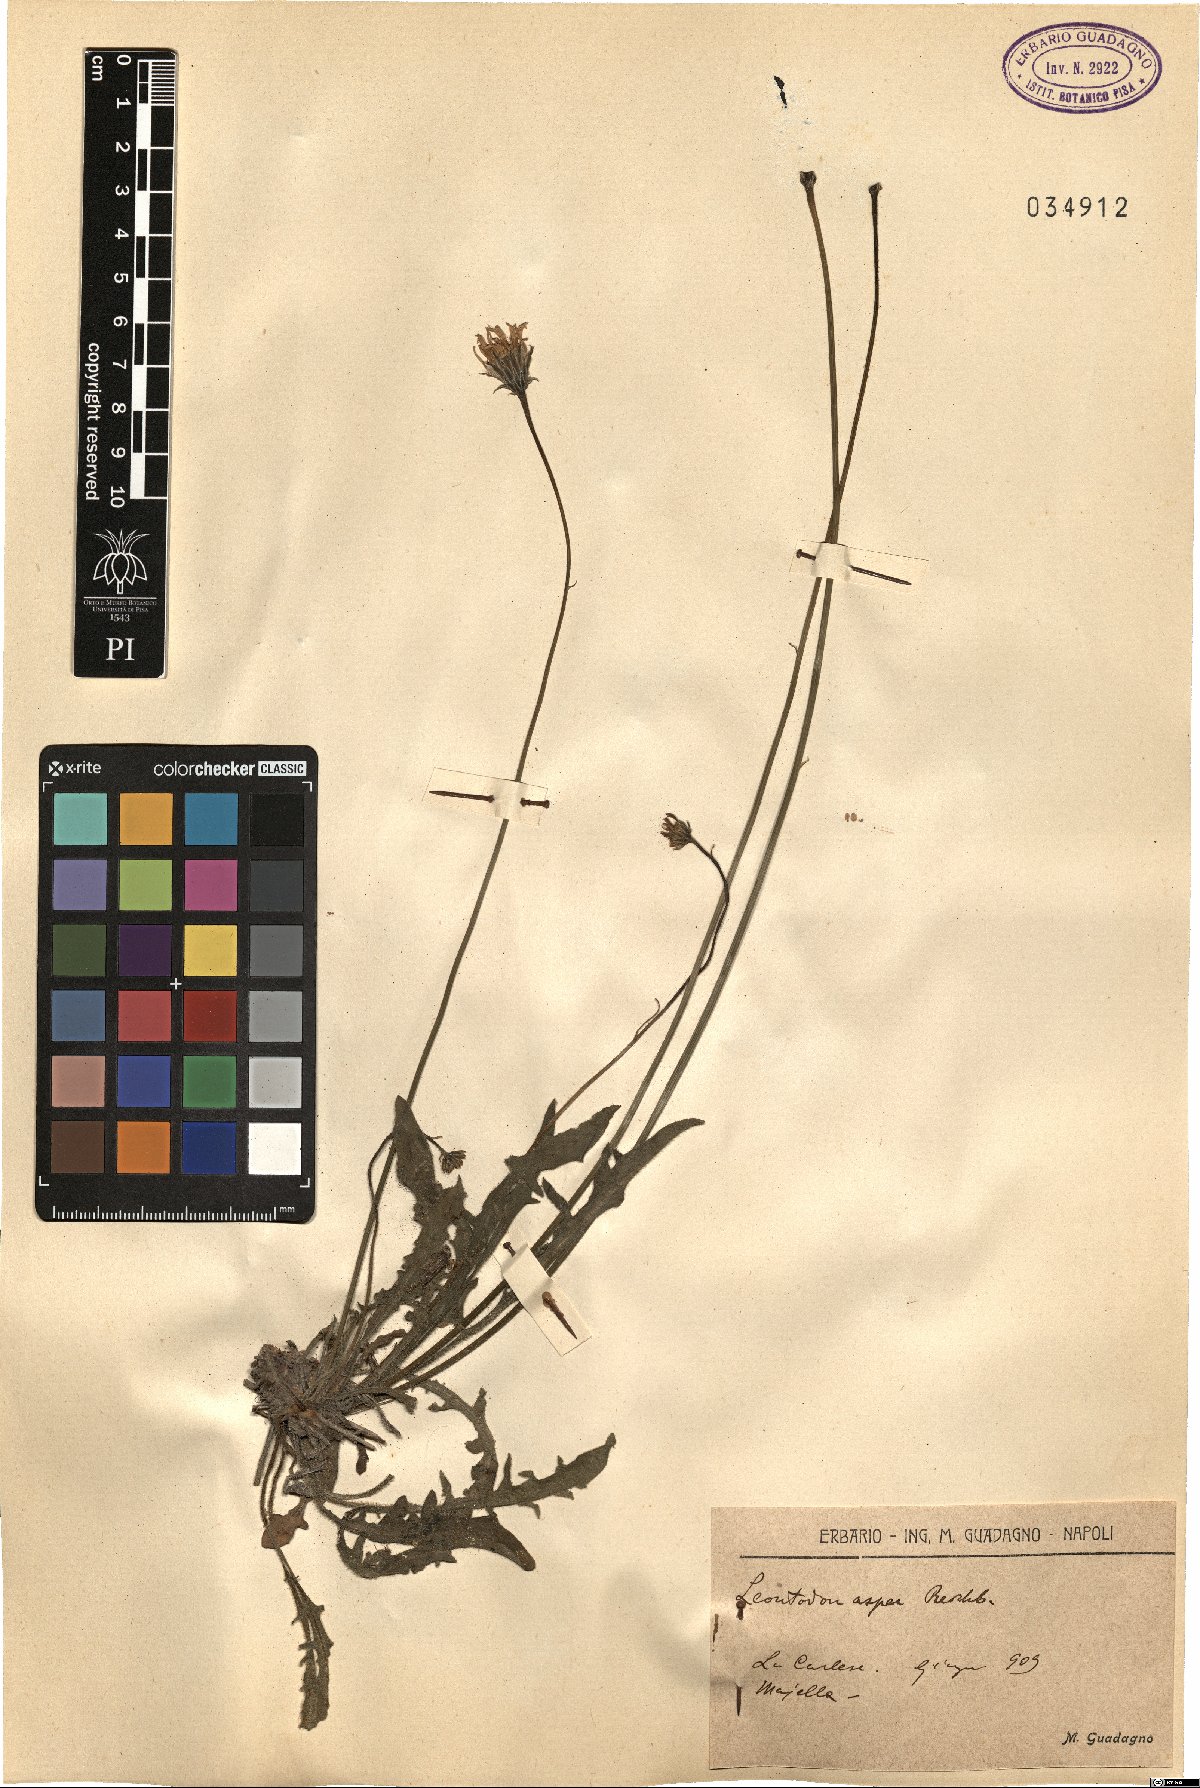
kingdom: Plantae
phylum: Tracheophyta
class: Magnoliopsida
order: Asterales
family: Asteraceae
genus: Leontodon
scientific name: Leontodon biscutellifolius
